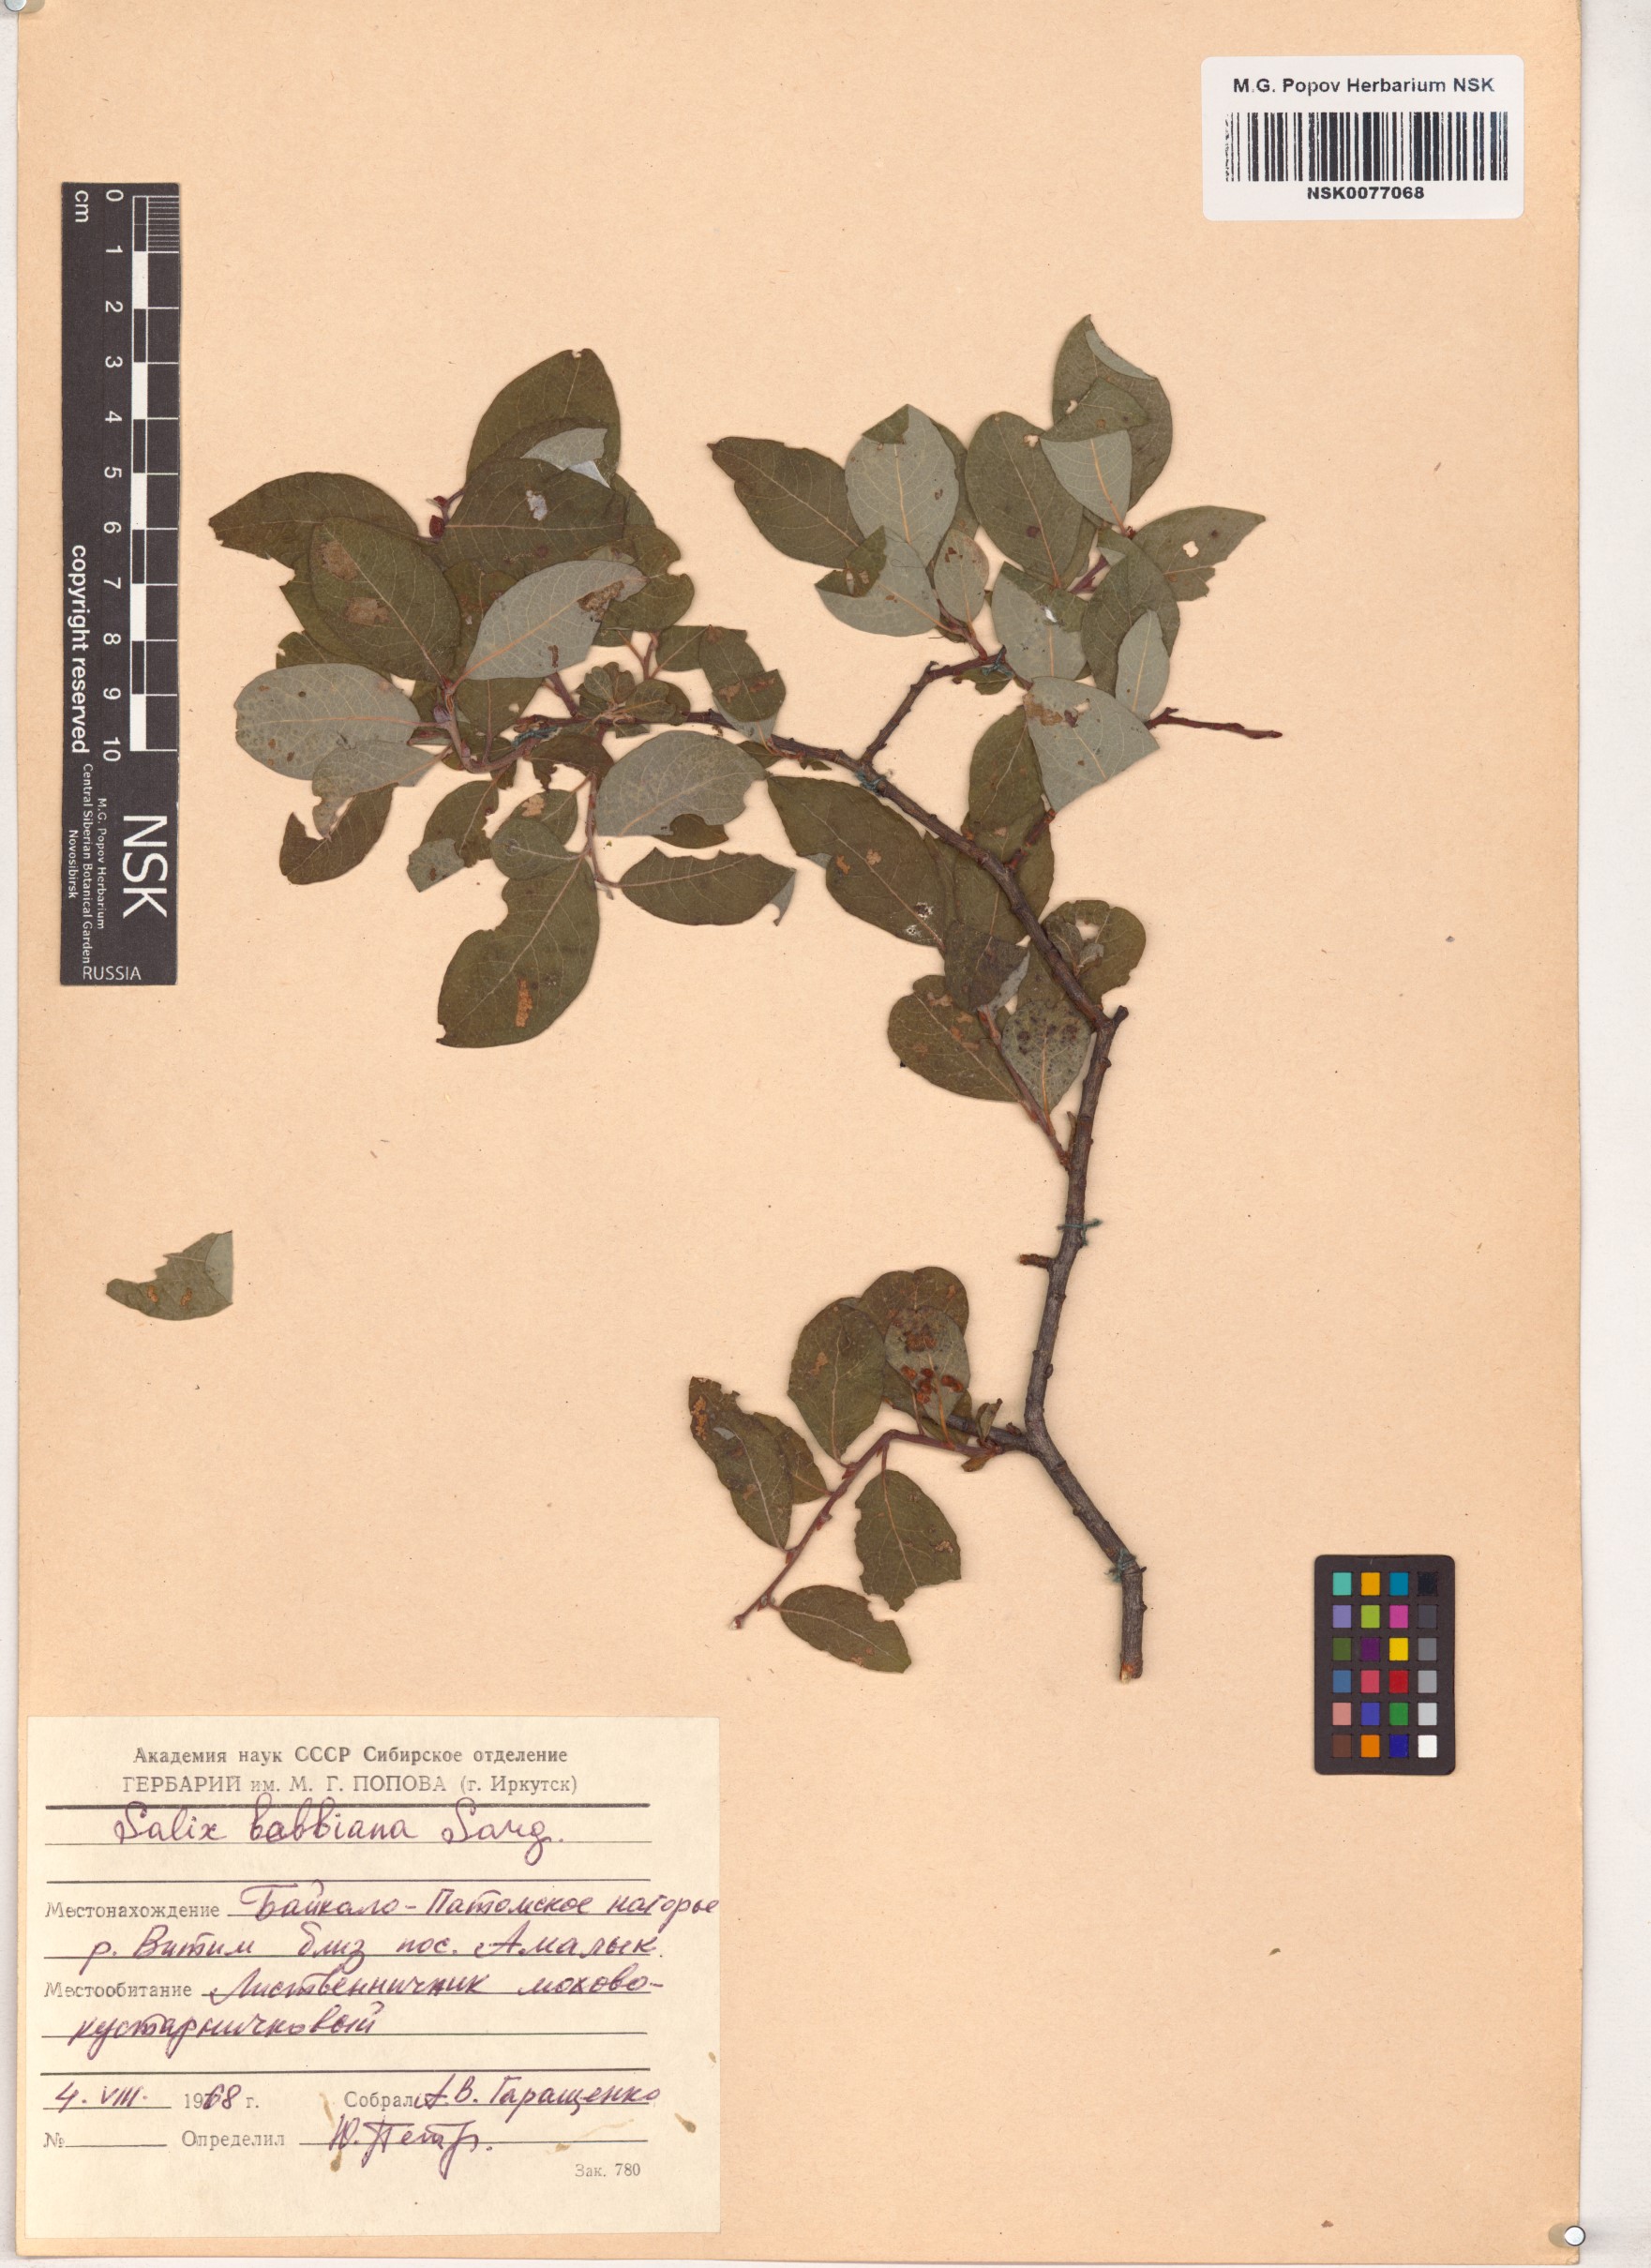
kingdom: Plantae
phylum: Tracheophyta
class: Magnoliopsida
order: Malpighiales
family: Salicaceae
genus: Salix
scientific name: Salix bebbiana
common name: Bebb's willow
